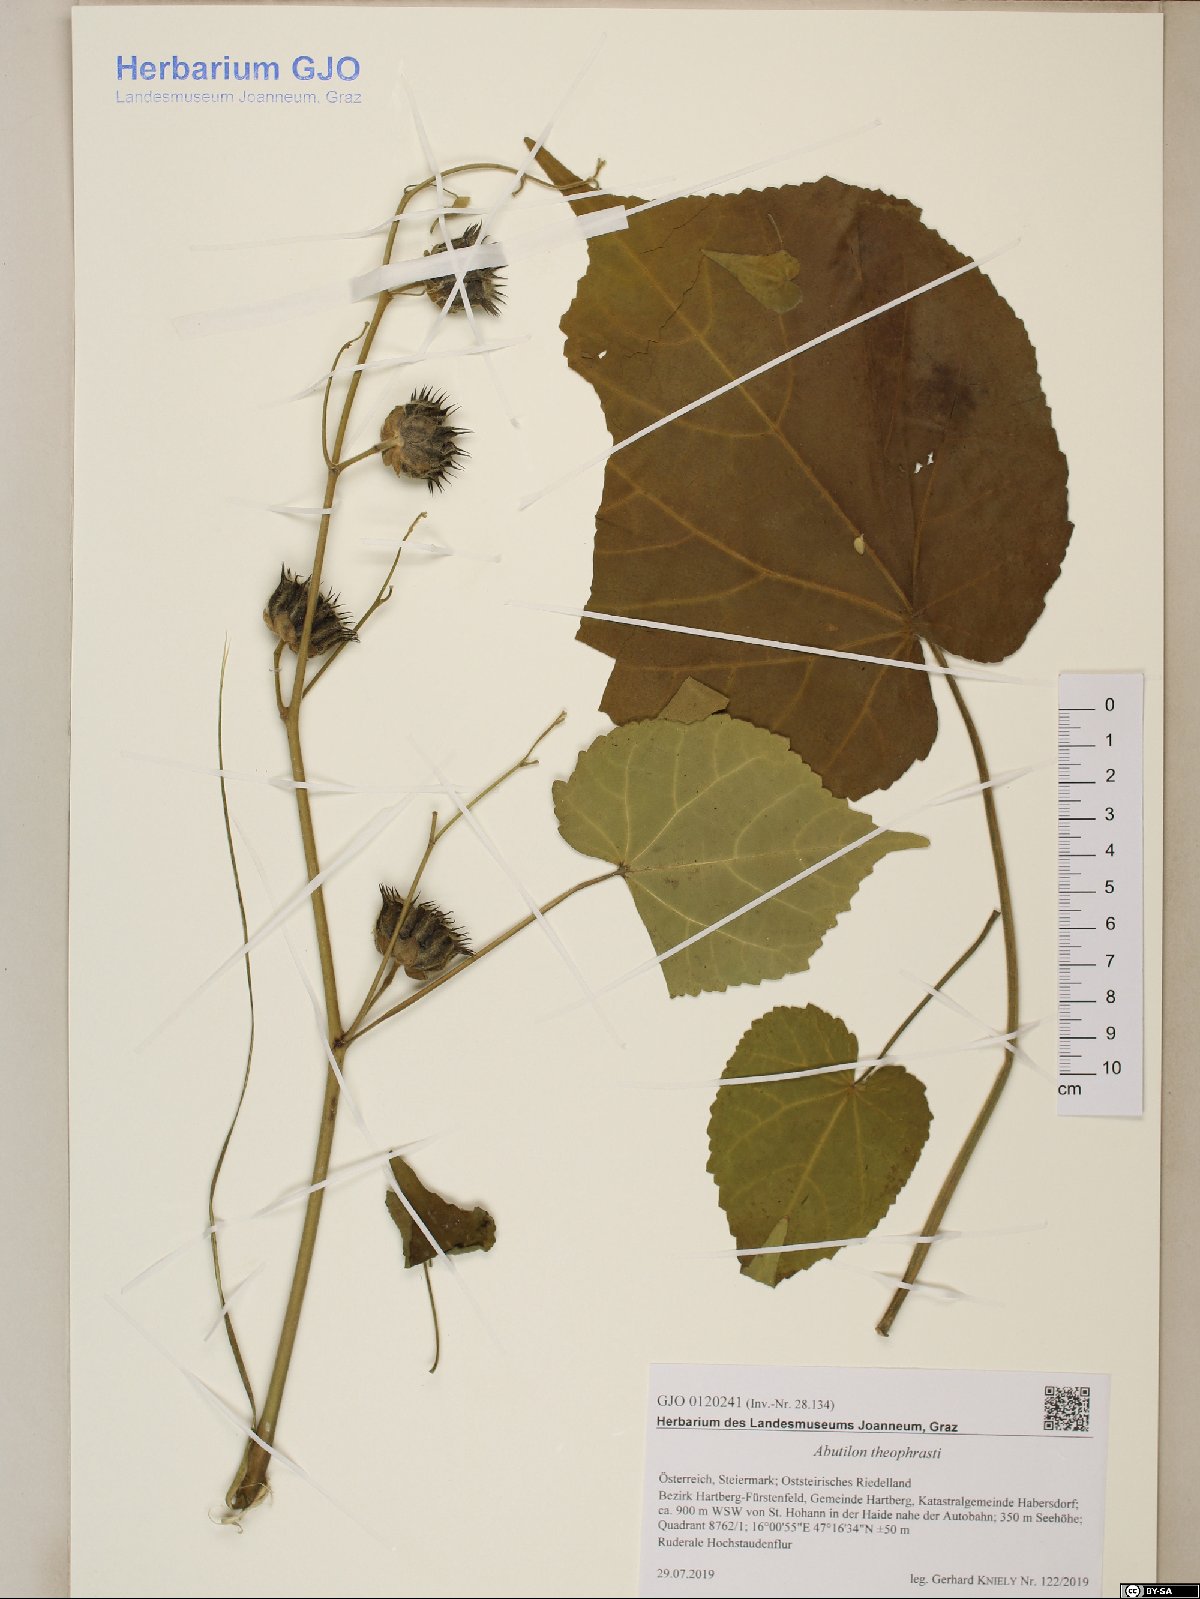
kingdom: Plantae
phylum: Tracheophyta
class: Magnoliopsida
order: Malvales
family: Malvaceae
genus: Abutilon
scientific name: Abutilon theophrasti
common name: Velvetleaf
